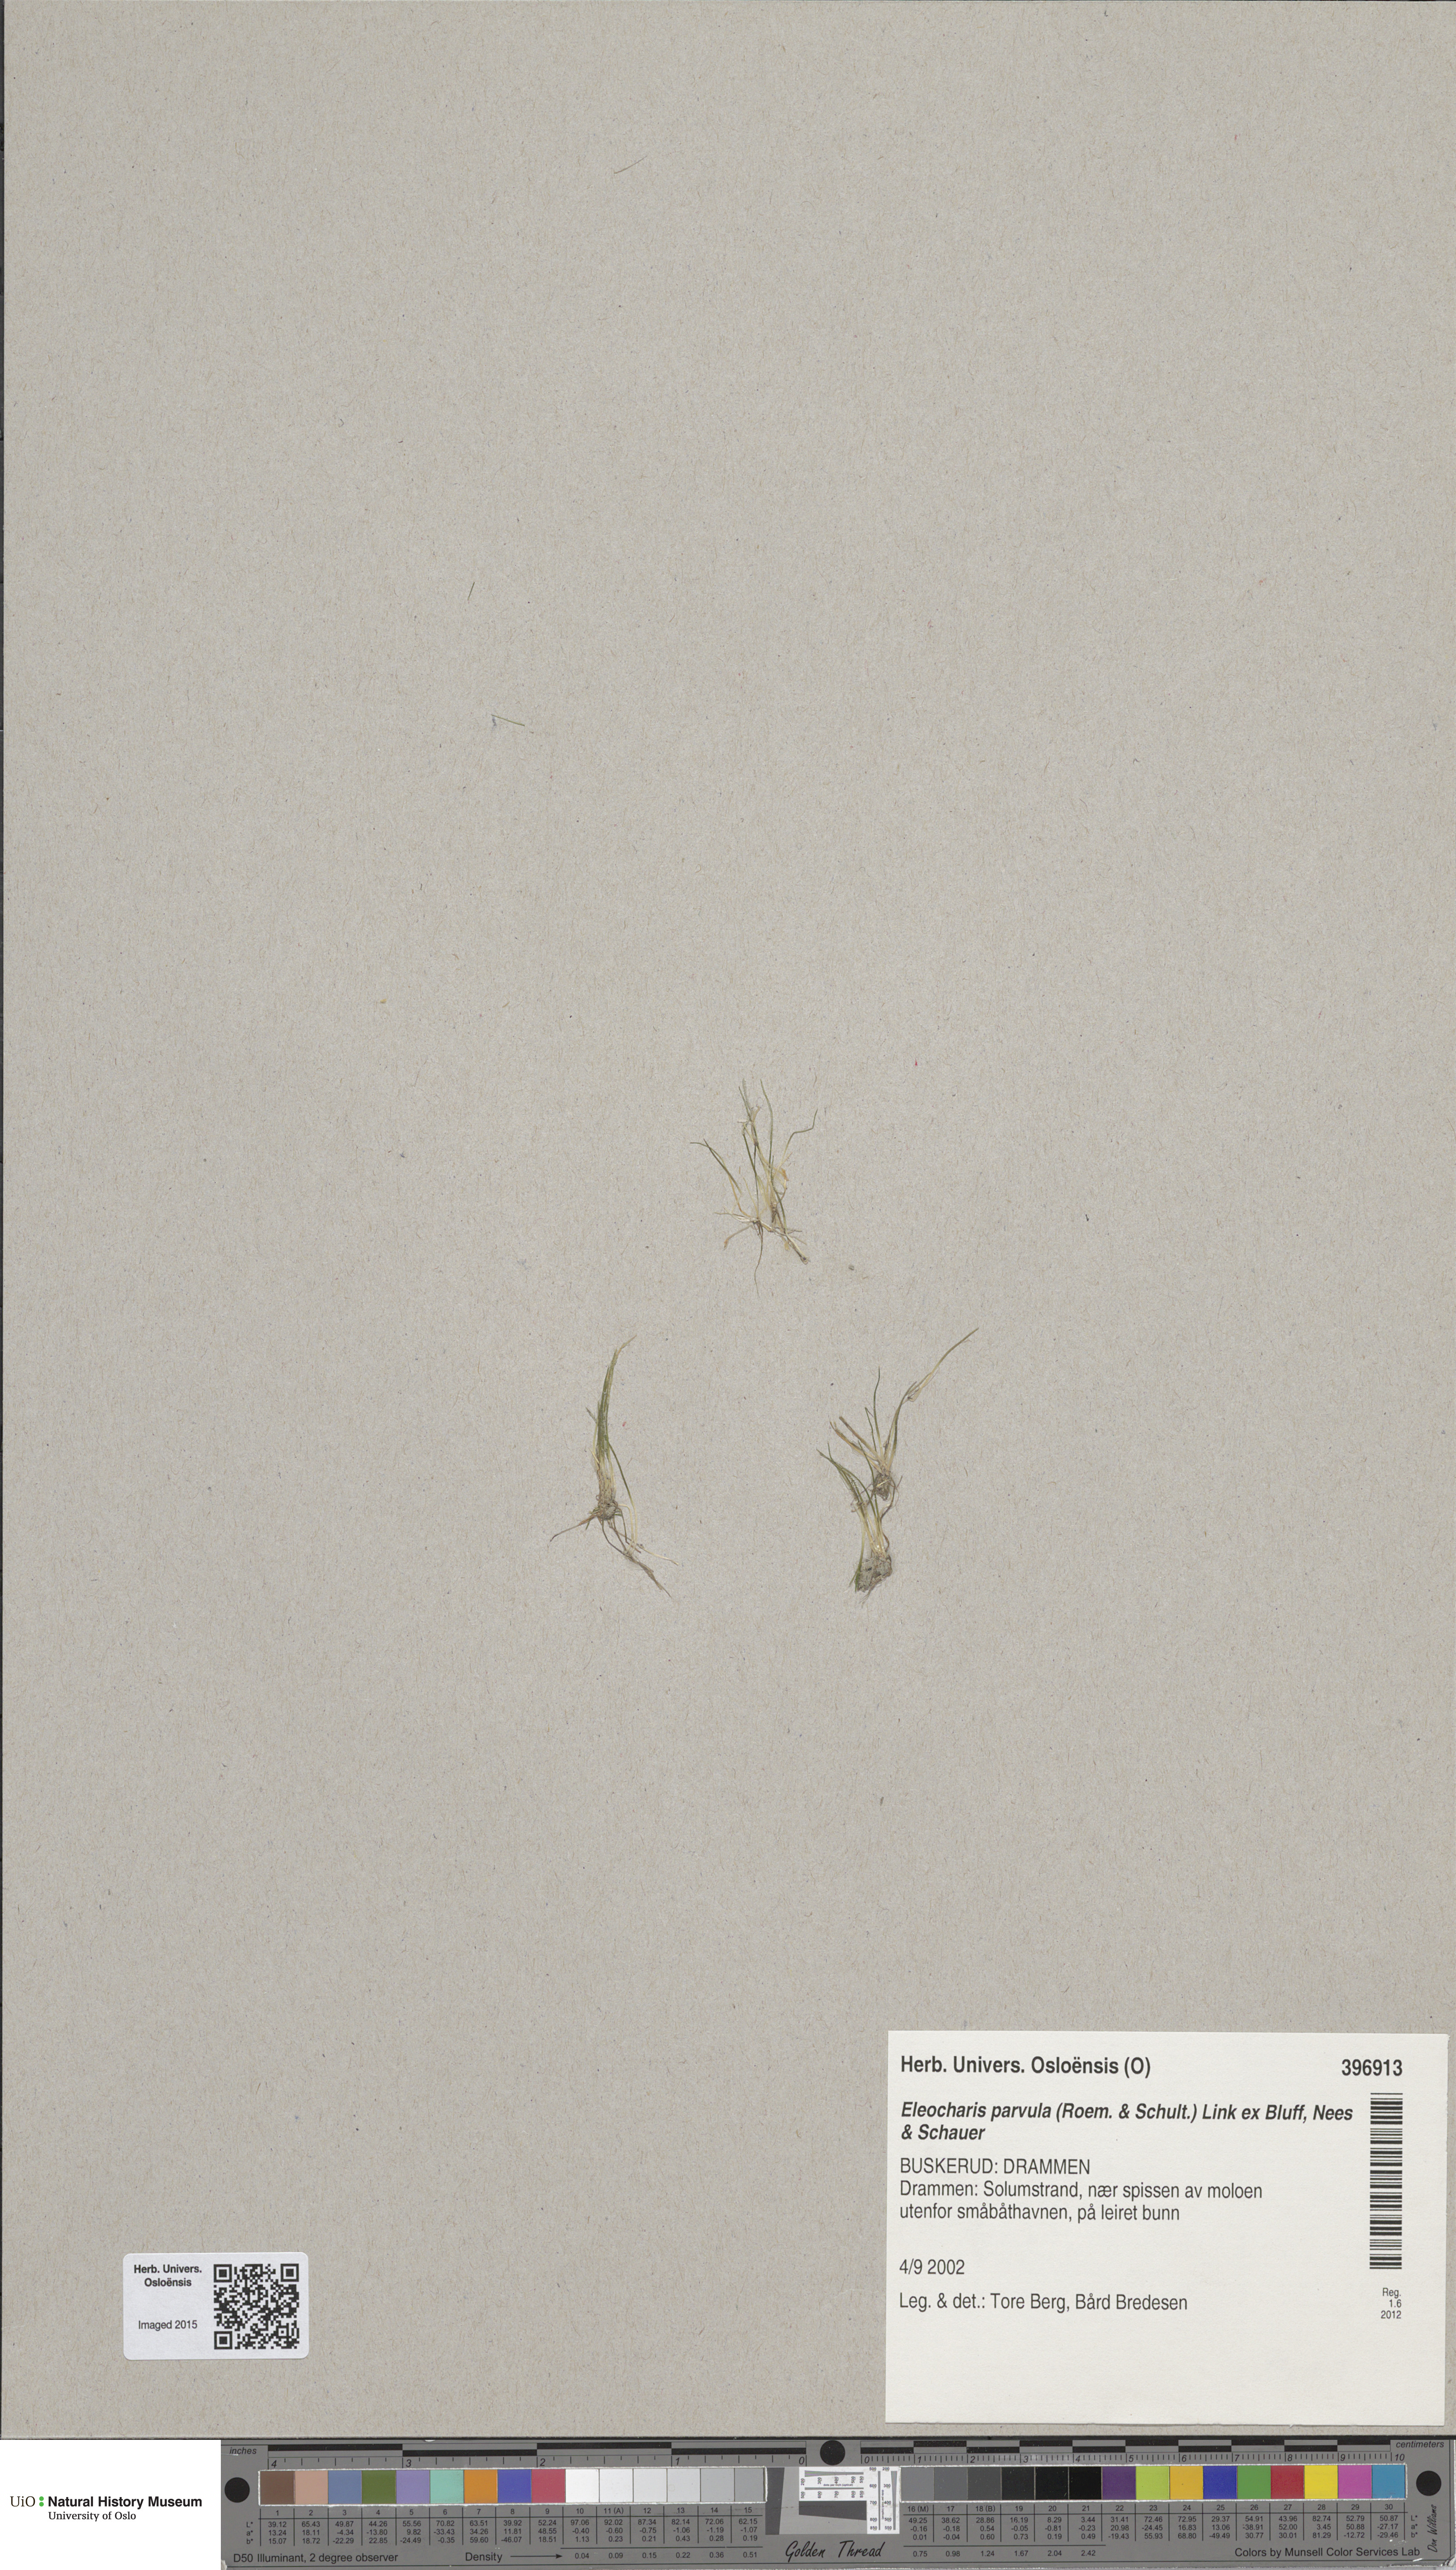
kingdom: Plantae
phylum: Tracheophyta
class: Liliopsida
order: Poales
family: Cyperaceae
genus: Eleocharis
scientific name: Eleocharis parvula
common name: Dwarf spike-rush
